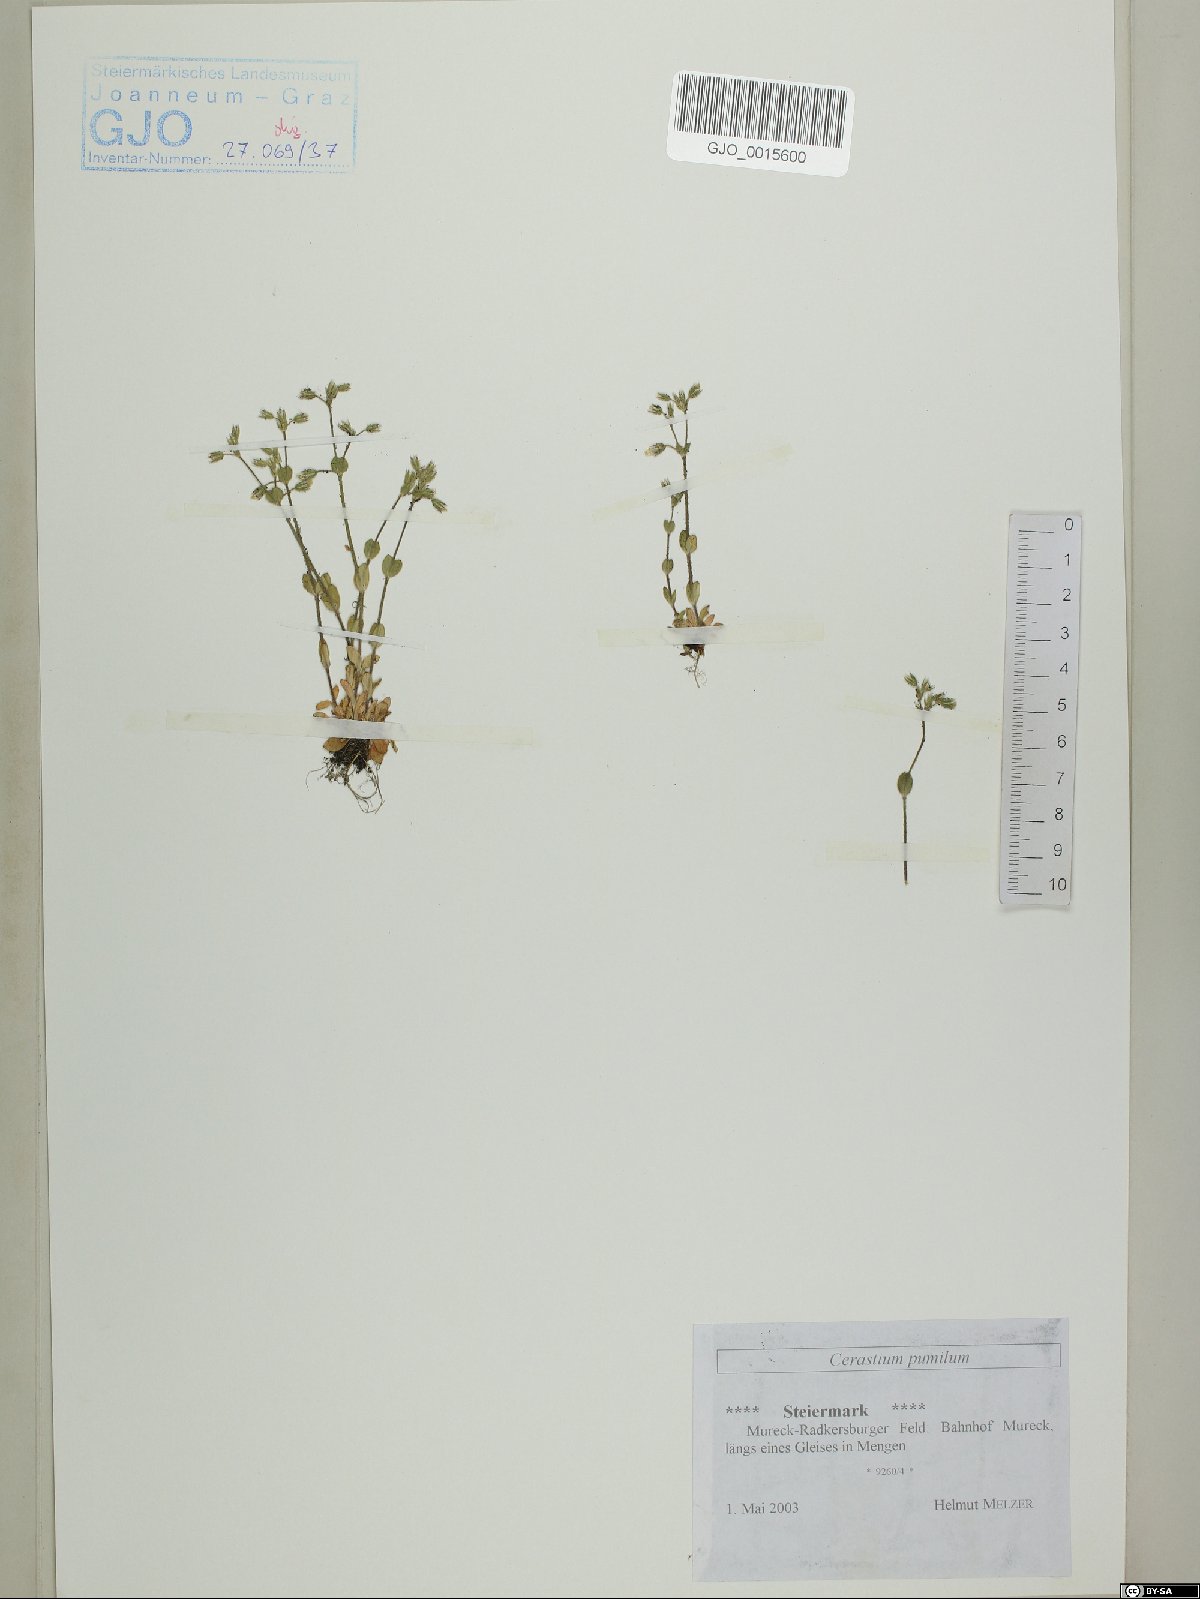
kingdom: Plantae
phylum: Tracheophyta
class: Magnoliopsida
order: Caryophyllales
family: Caryophyllaceae
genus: Cerastium
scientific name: Cerastium pumilum
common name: Dwarf mouse-ear
